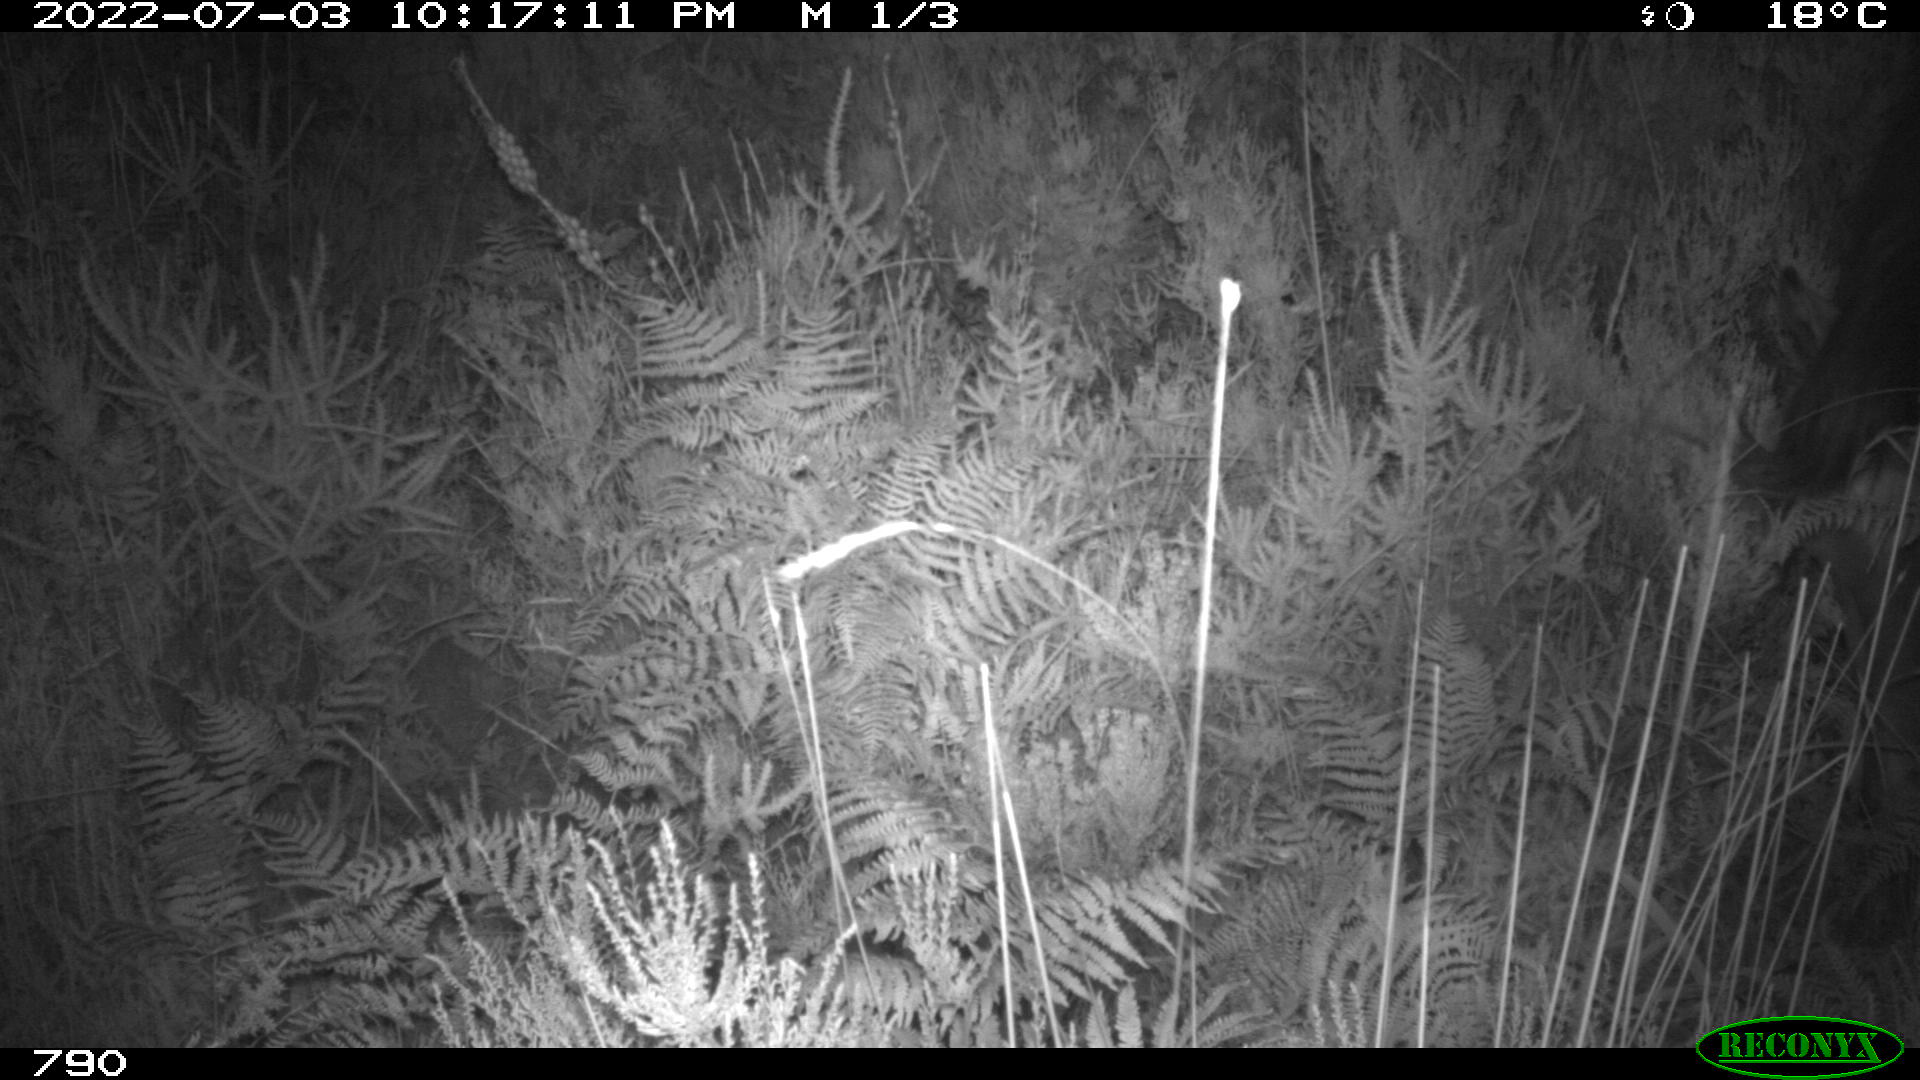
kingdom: Animalia
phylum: Chordata
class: Mammalia
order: Perissodactyla
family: Equidae
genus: Equus
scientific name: Equus caballus
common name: Horse
